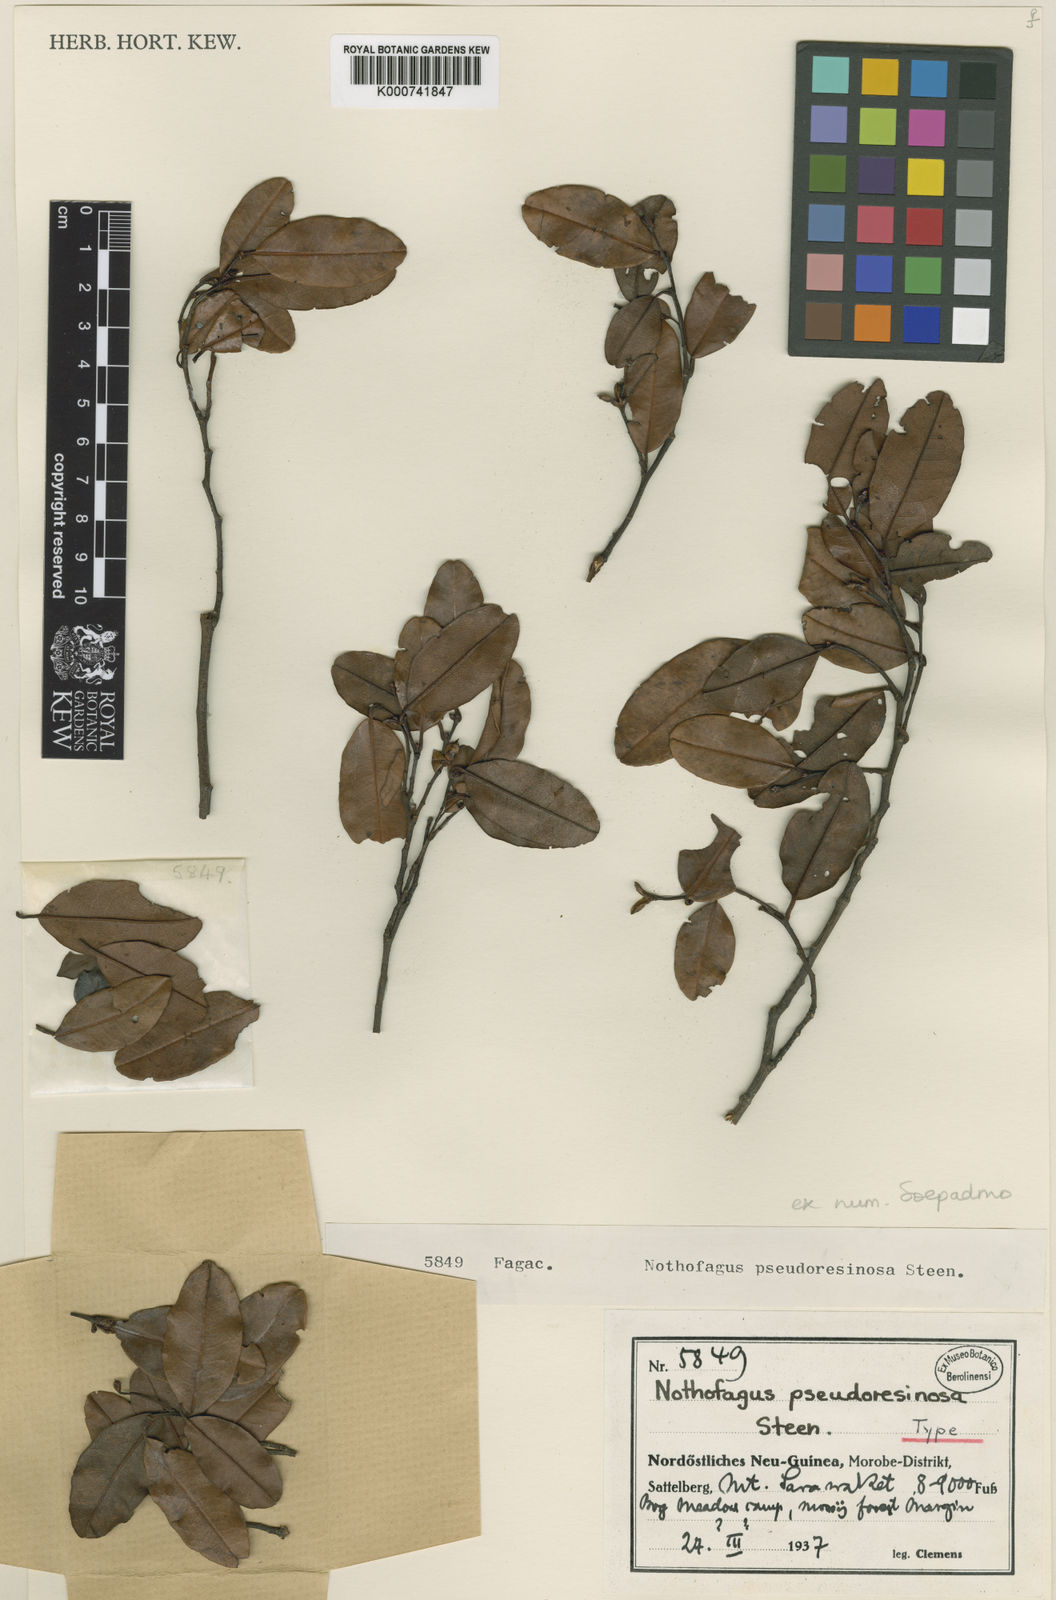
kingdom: Plantae
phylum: Tracheophyta
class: Magnoliopsida
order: Fagales
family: Nothofagaceae
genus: Nothofagus
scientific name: Nothofagus pseudoresinosa
